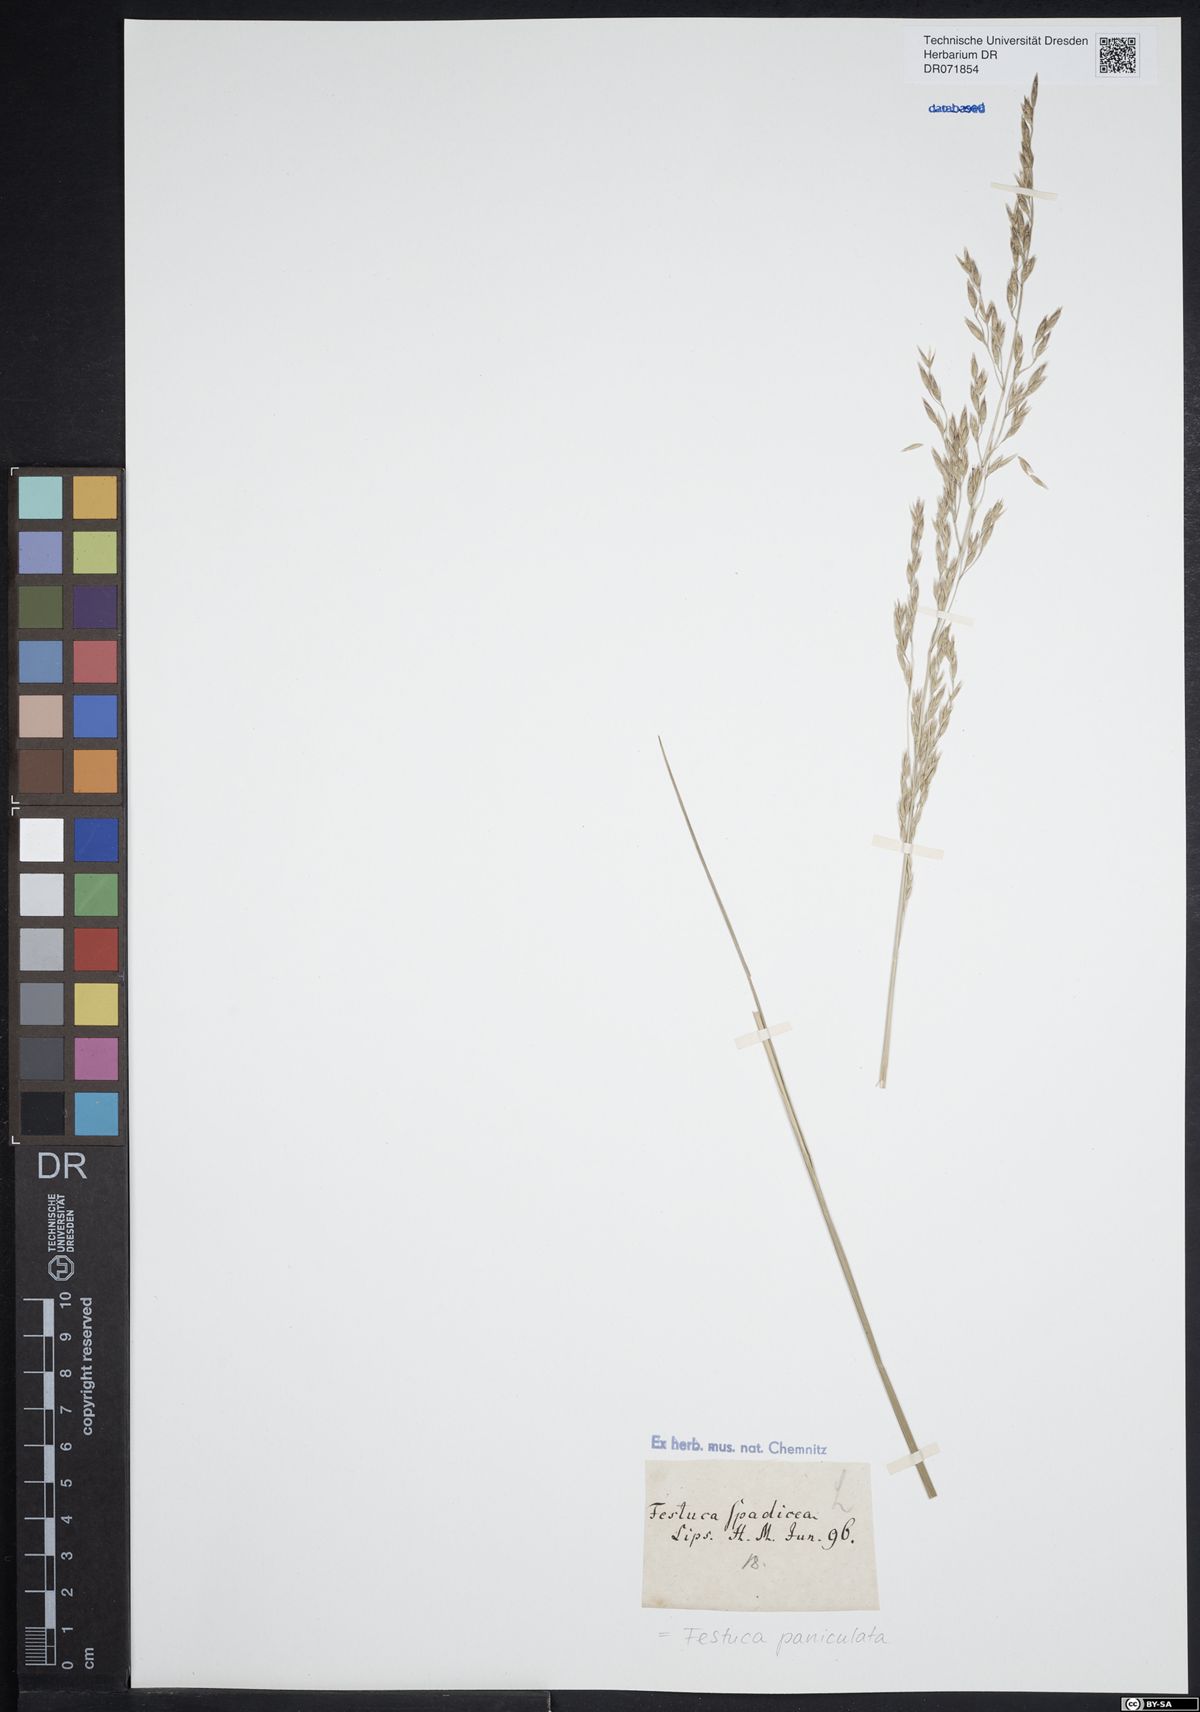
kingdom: Plantae
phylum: Tracheophyta
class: Liliopsida
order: Poales
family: Poaceae
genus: Patzkea
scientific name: Patzkea paniculata
